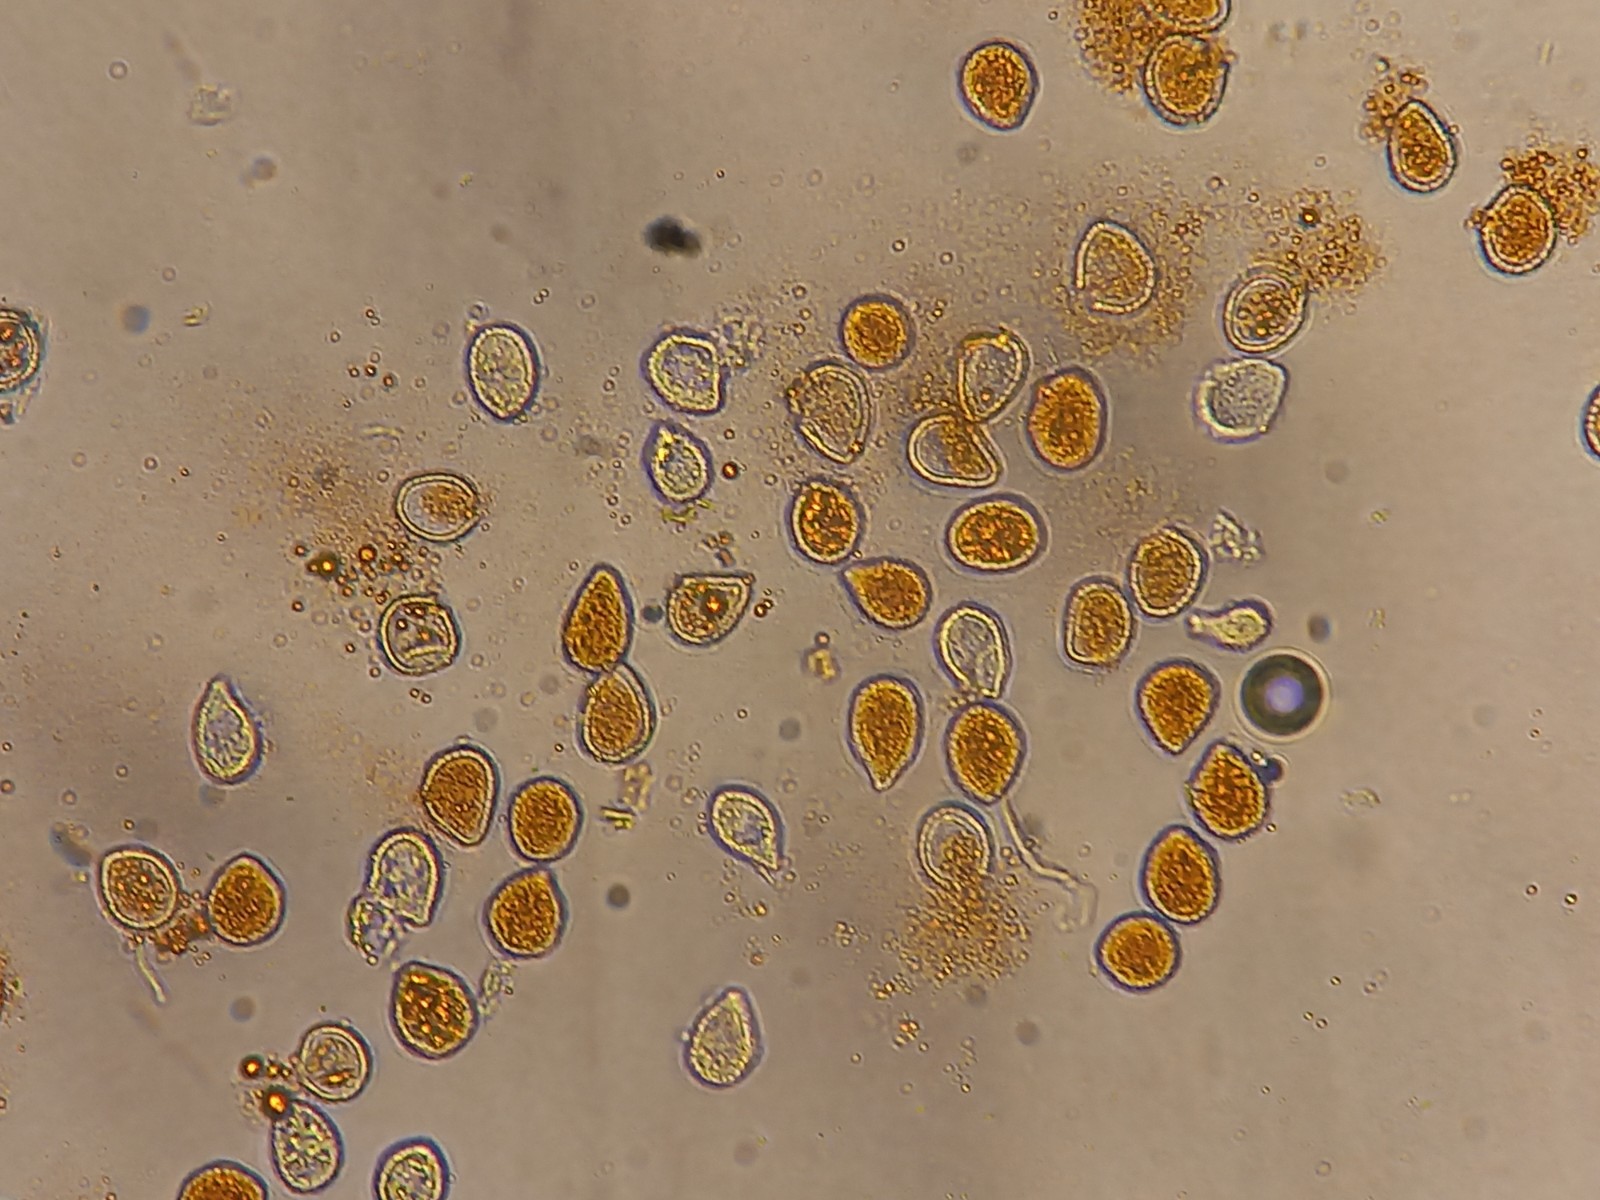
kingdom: Fungi
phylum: Basidiomycota
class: Pucciniomycetes
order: Pucciniales
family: Phragmidiaceae
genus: Phragmidium
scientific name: Phragmidium potentillae
